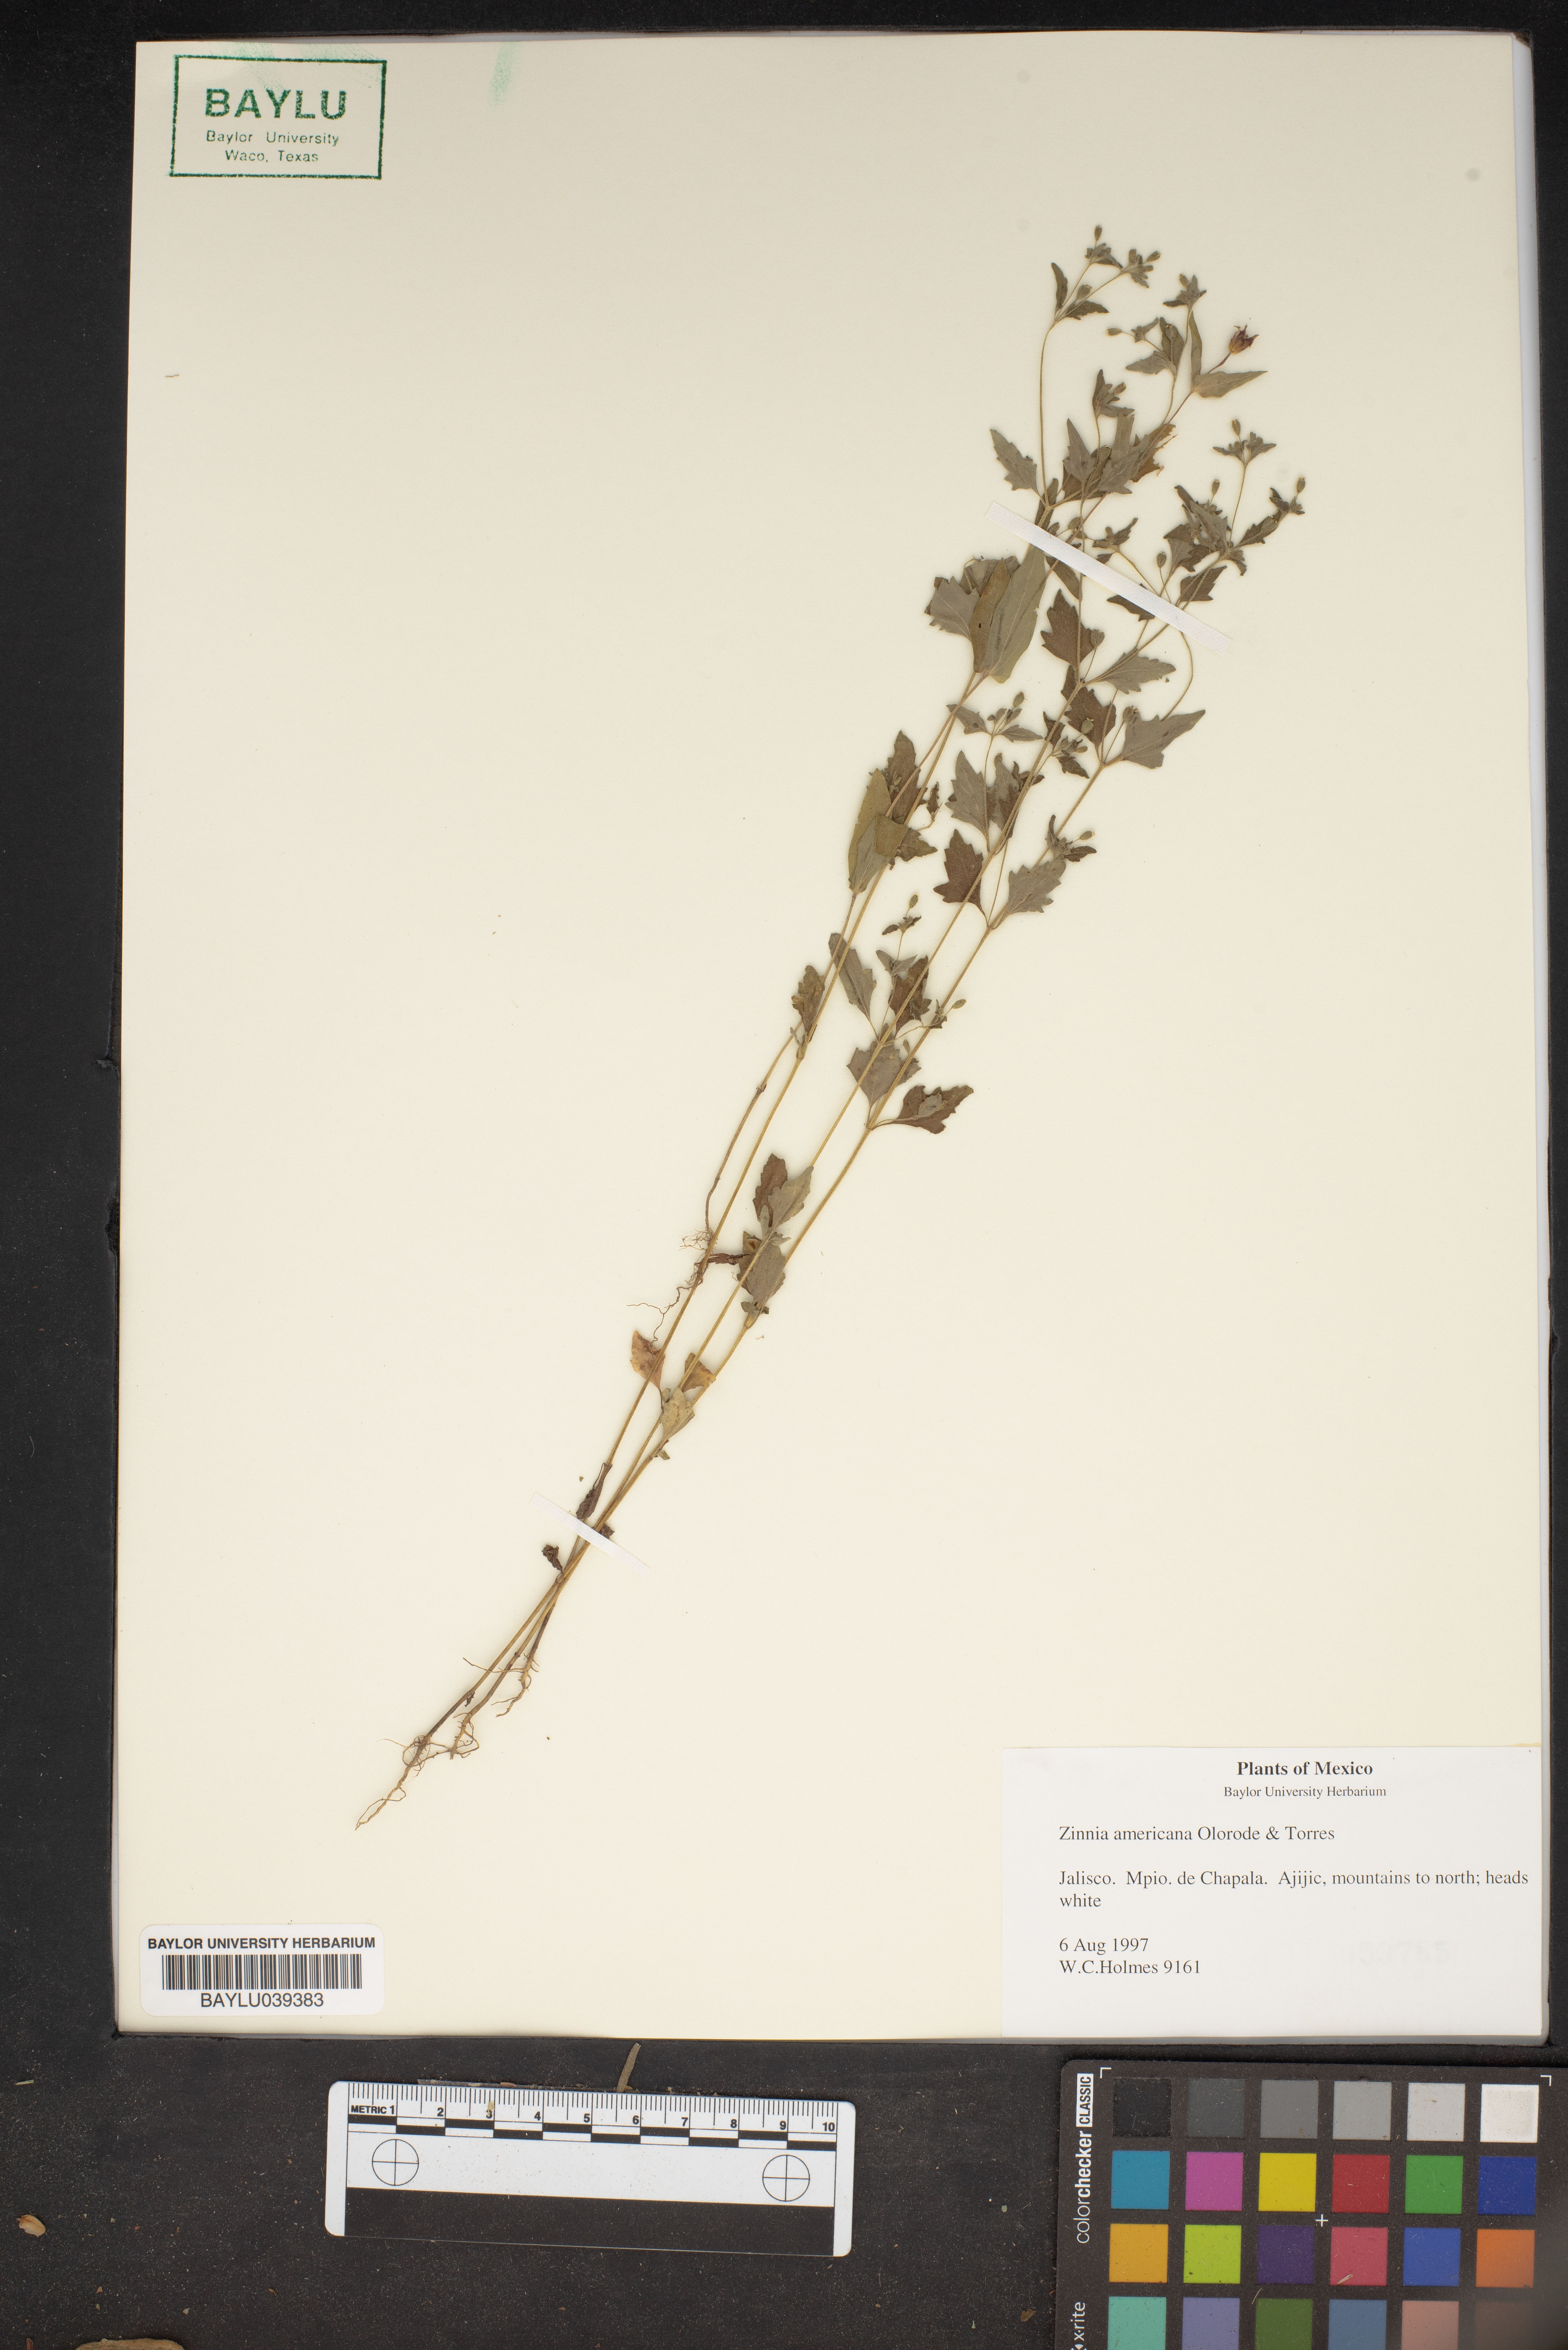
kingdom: Plantae
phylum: Tracheophyta
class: Magnoliopsida
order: Asterales
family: Asteraceae
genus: Zinnia
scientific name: Zinnia americana
